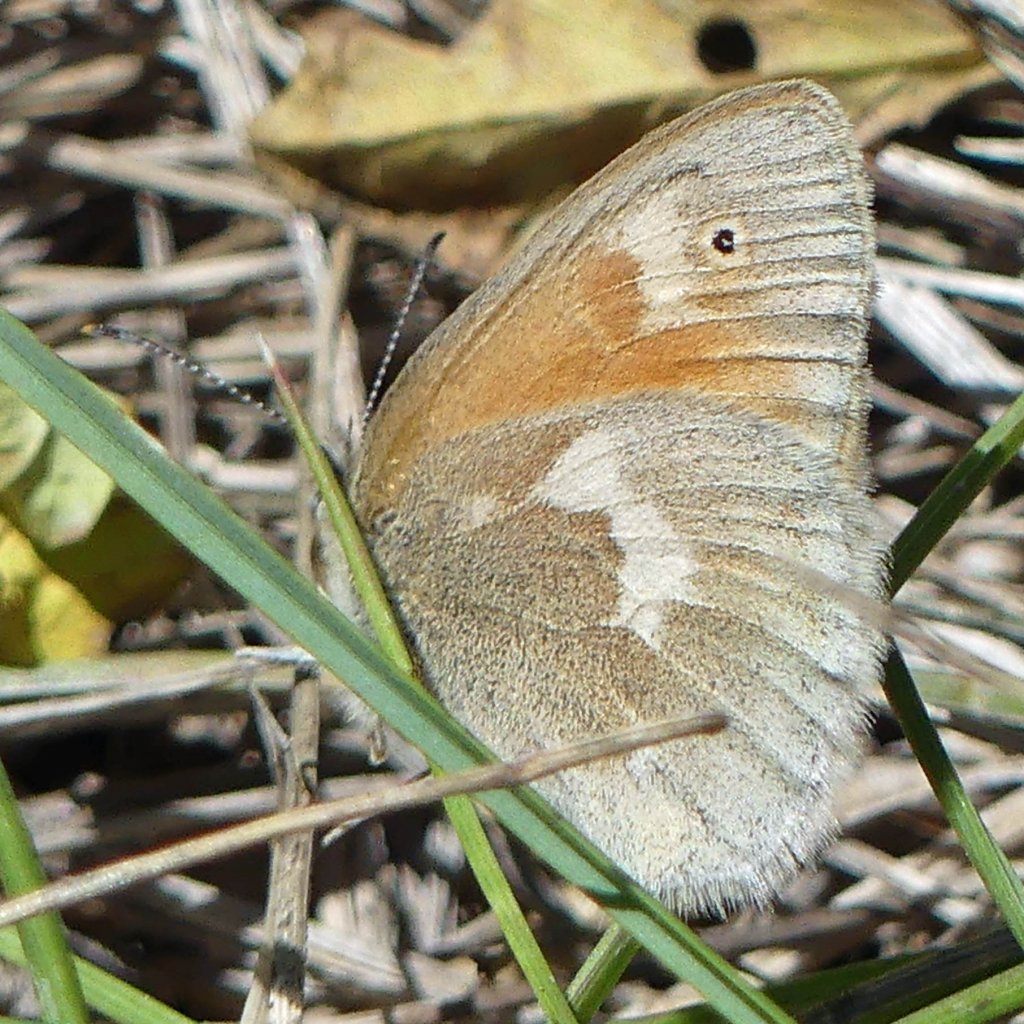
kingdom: Animalia
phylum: Arthropoda
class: Insecta
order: Lepidoptera
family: Nymphalidae
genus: Coenonympha
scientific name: Coenonympha tullia
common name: Large Heath
